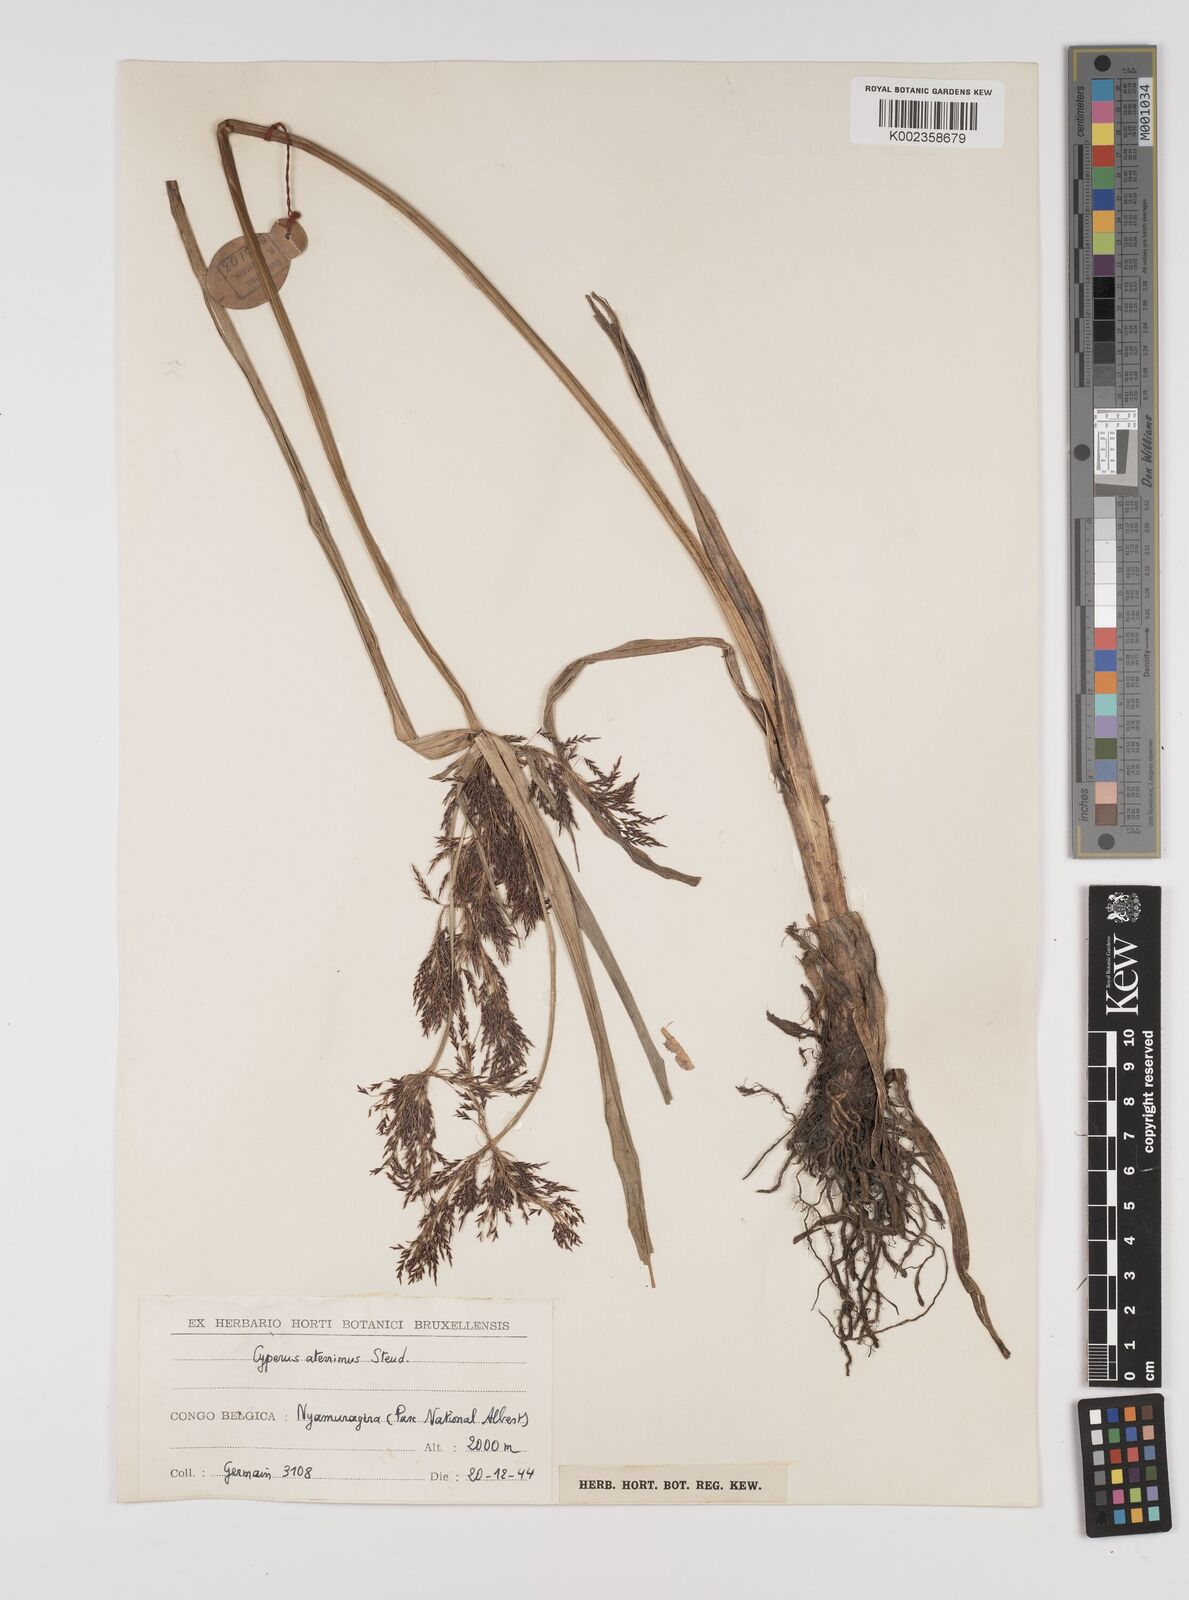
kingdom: Plantae
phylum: Tracheophyta
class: Liliopsida
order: Poales
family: Cyperaceae
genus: Cyperus
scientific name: Cyperus aterrimus
